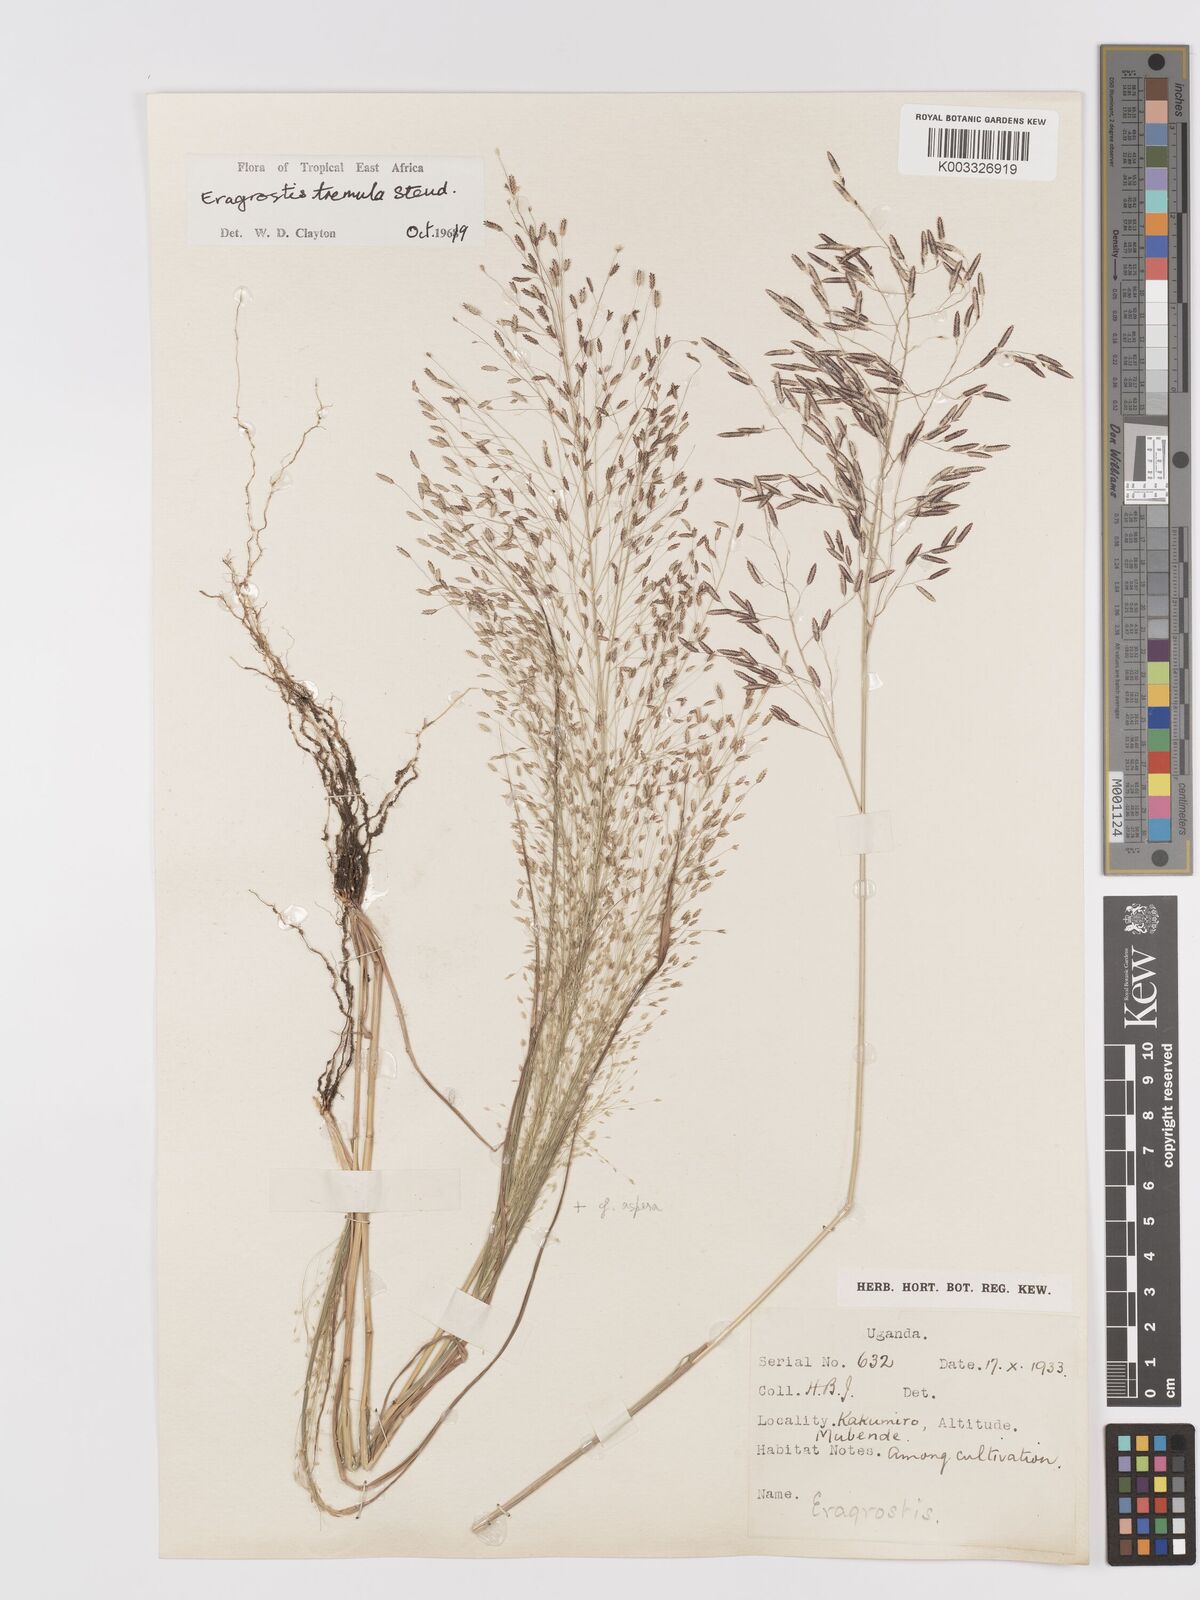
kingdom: Plantae
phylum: Tracheophyta
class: Liliopsida
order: Poales
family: Poaceae
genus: Eragrostis
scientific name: Eragrostis tremula
